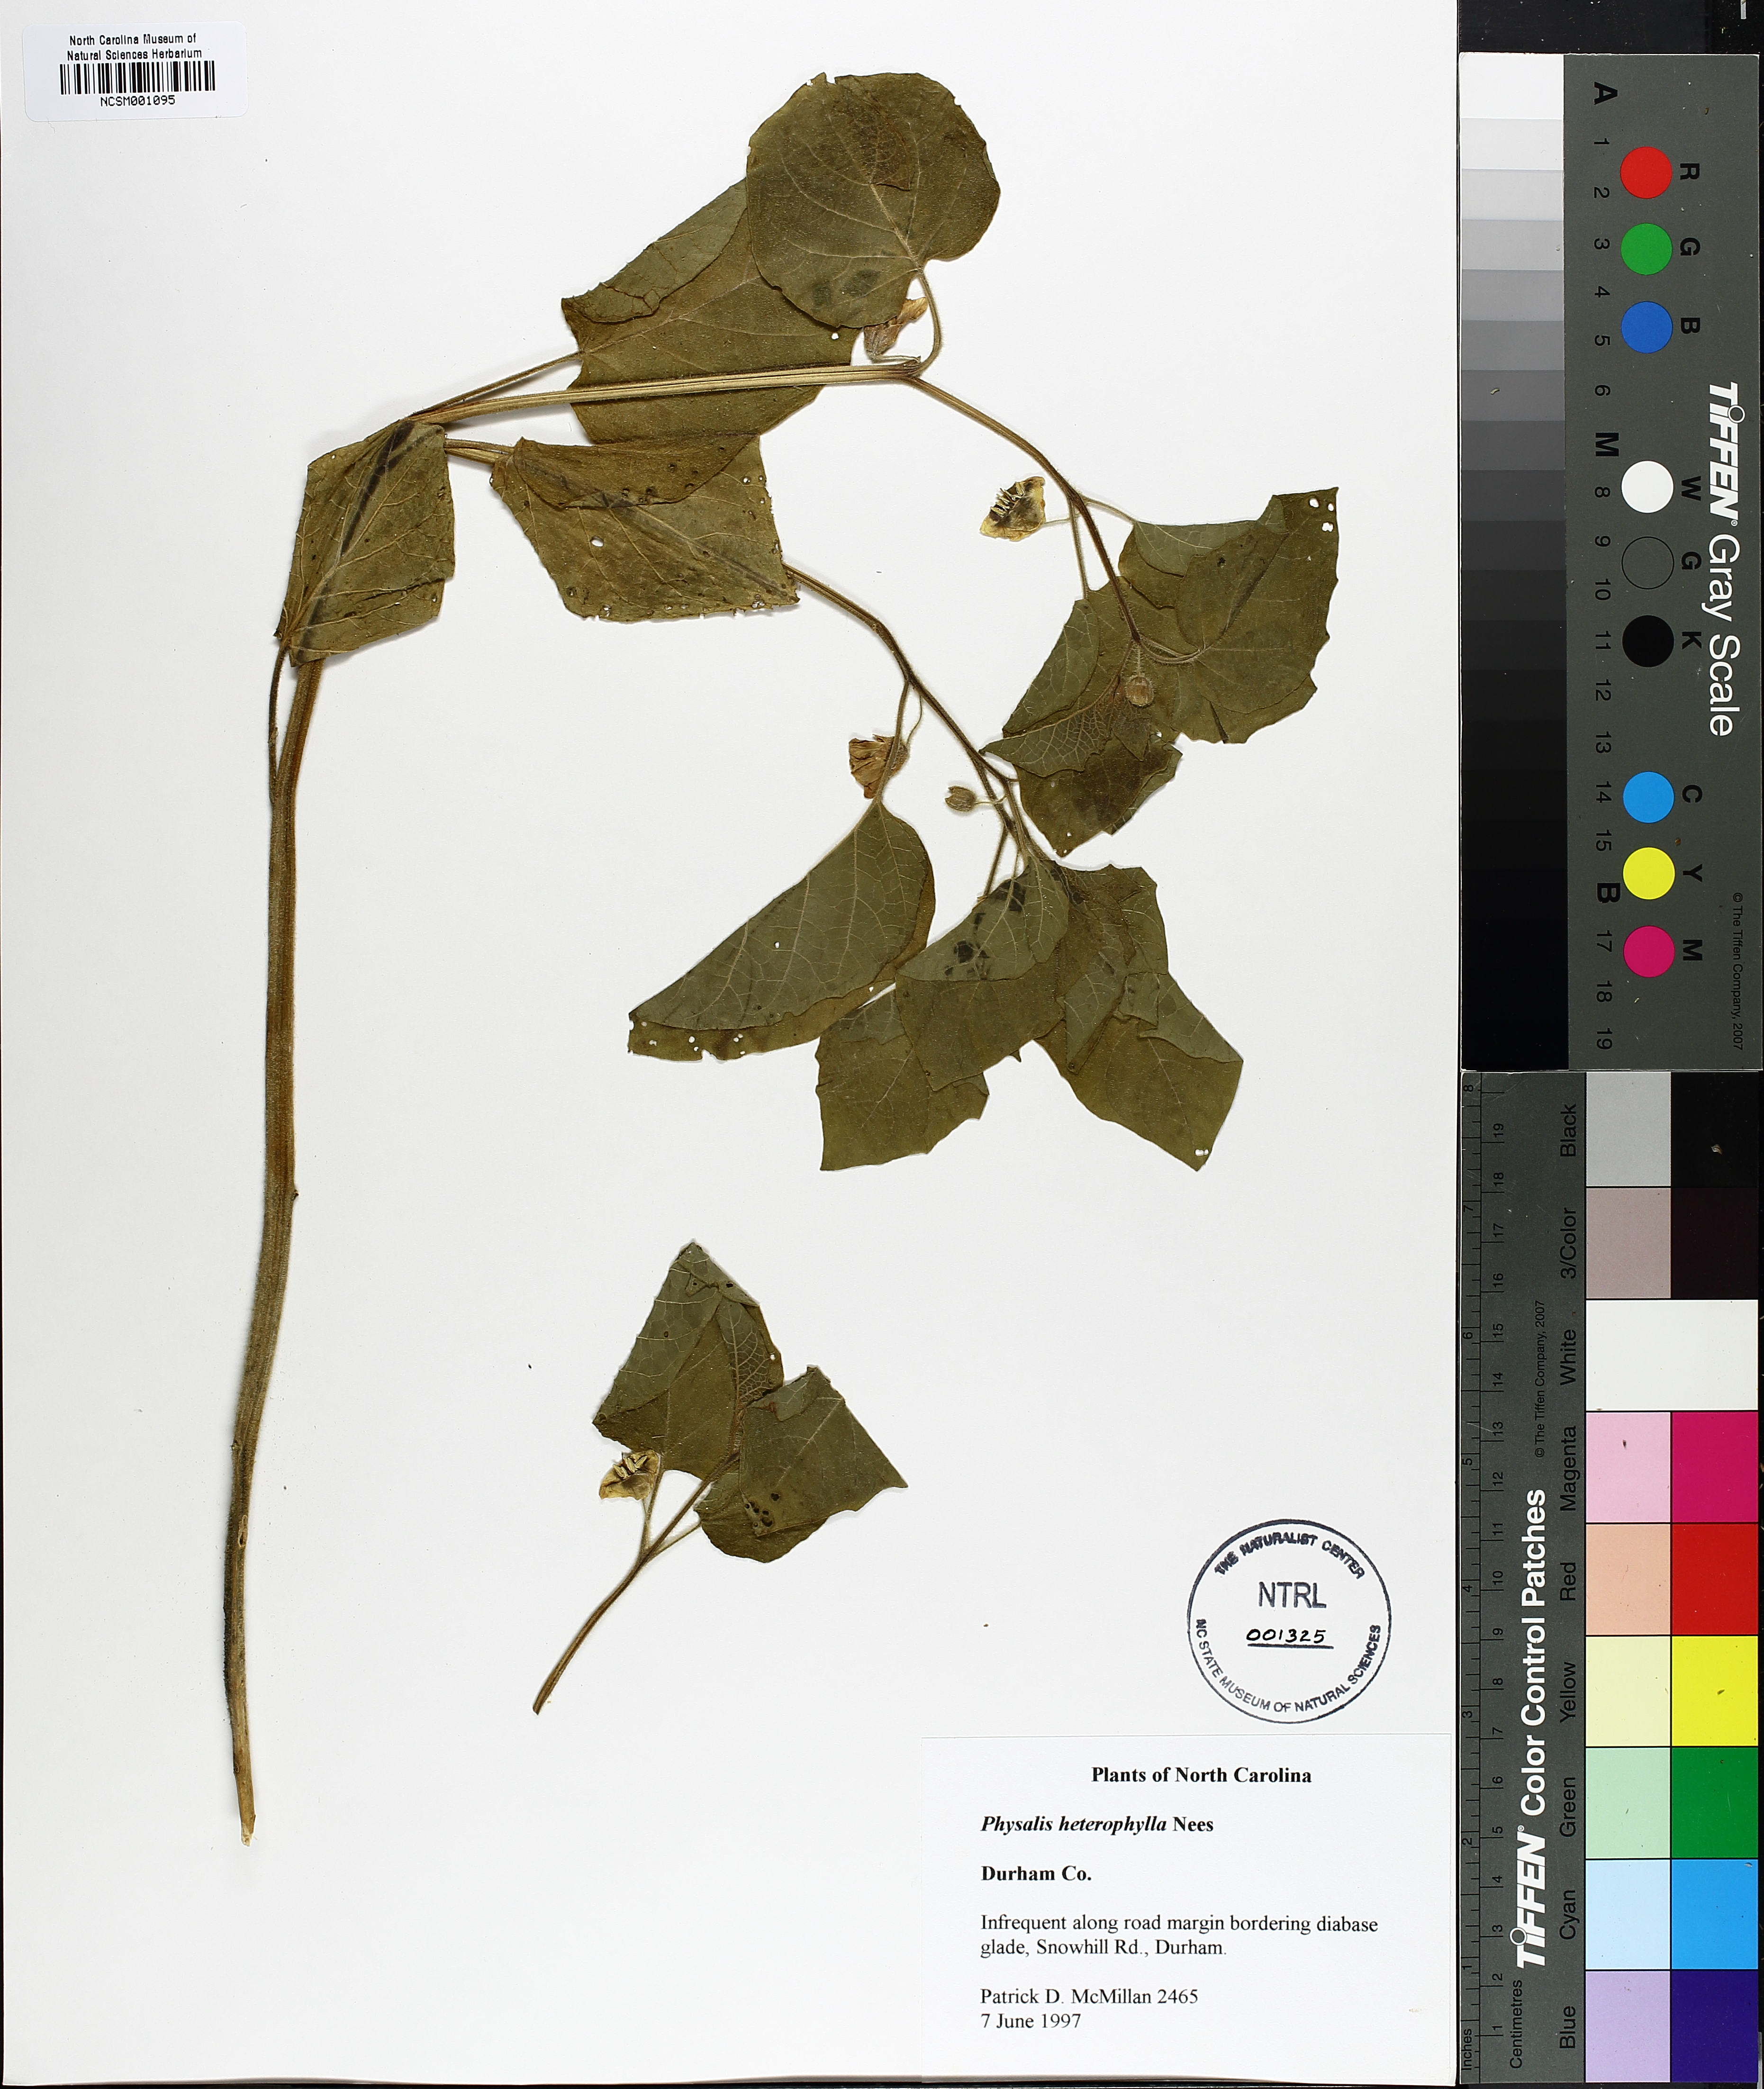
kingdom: Plantae
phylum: Tracheophyta
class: Magnoliopsida
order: Solanales
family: Solanaceae
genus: Physalis
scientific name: Physalis heterophylla
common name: Clammy ground-cherry
